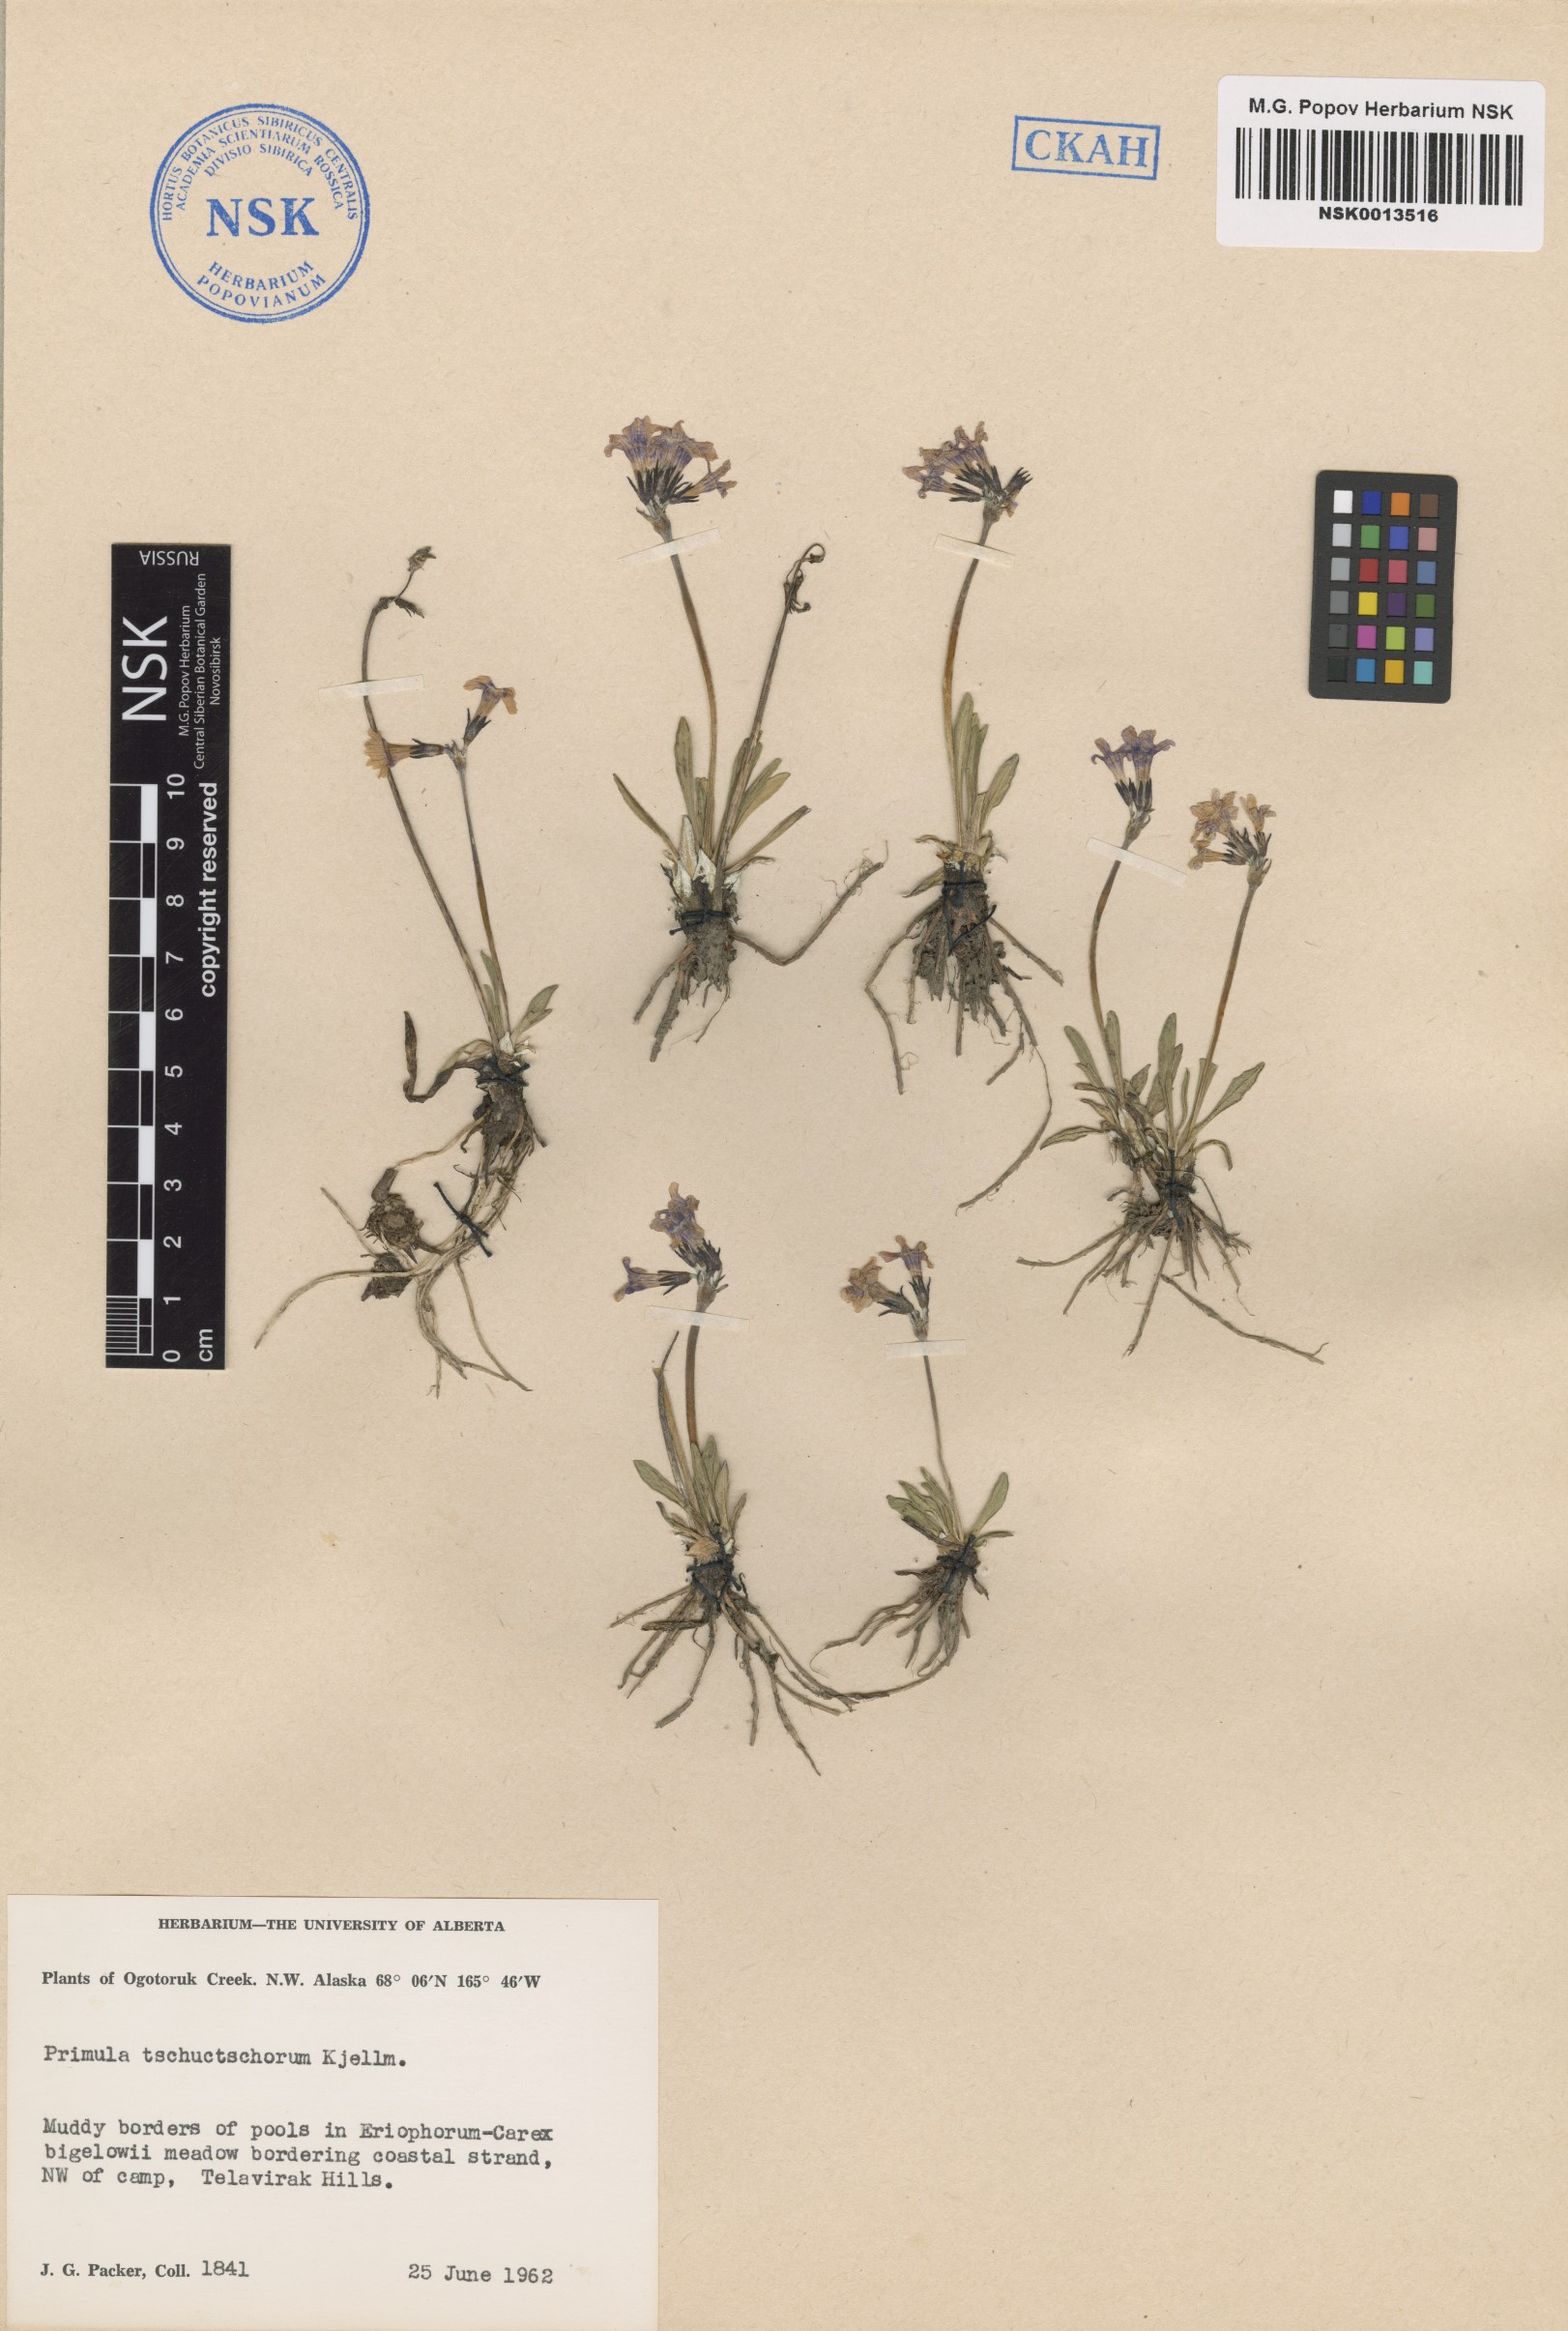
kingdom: Plantae
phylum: Tracheophyta
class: Magnoliopsida
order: Ericales
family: Primulaceae
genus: Primula
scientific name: Primula tschuktschorum
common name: Chukchi primrose
